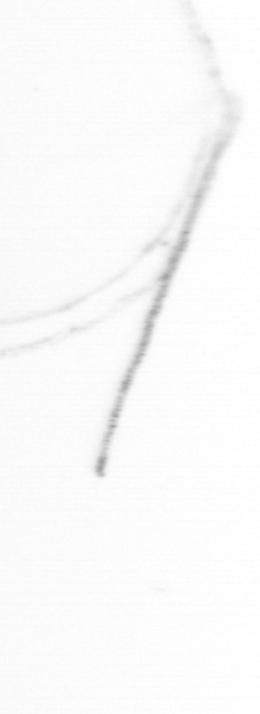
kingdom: Chromista
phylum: Ochrophyta
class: Bacillariophyceae
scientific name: Bacillariophyceae
